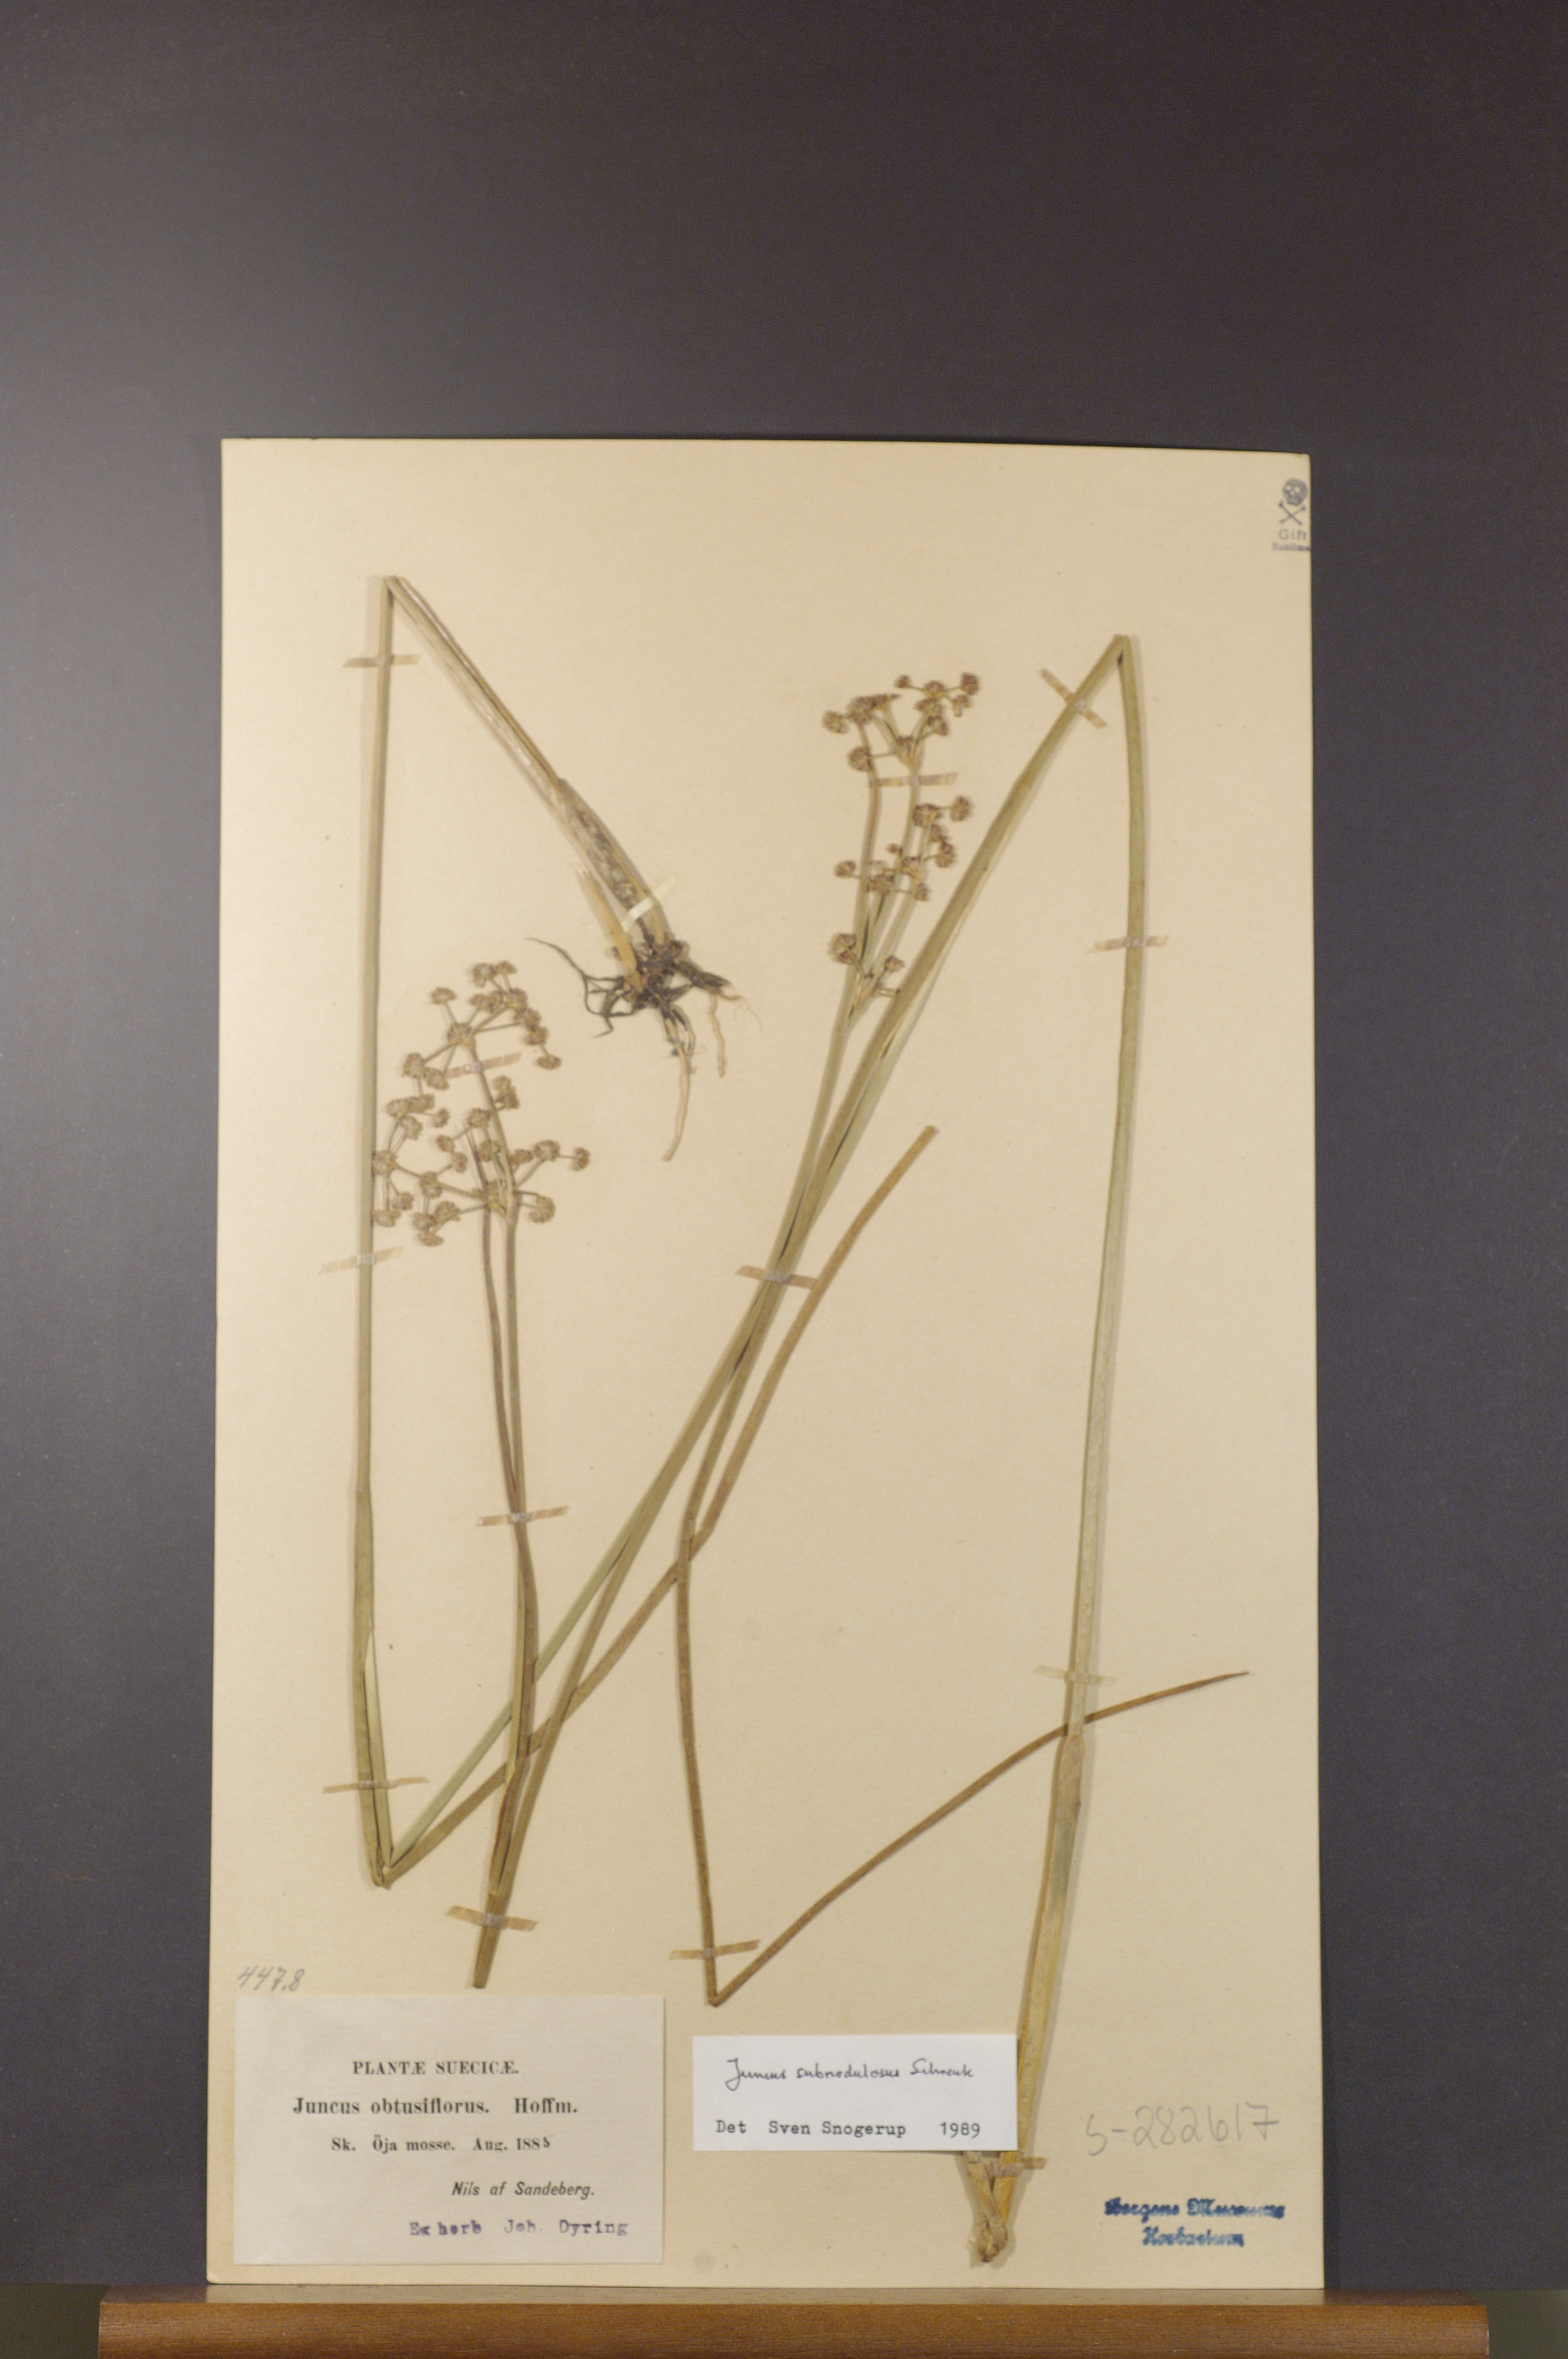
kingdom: Plantae
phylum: Tracheophyta
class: Liliopsida
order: Poales
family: Juncaceae
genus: Juncus
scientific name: Juncus subnodulosus
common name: Blunt-flowered rush
